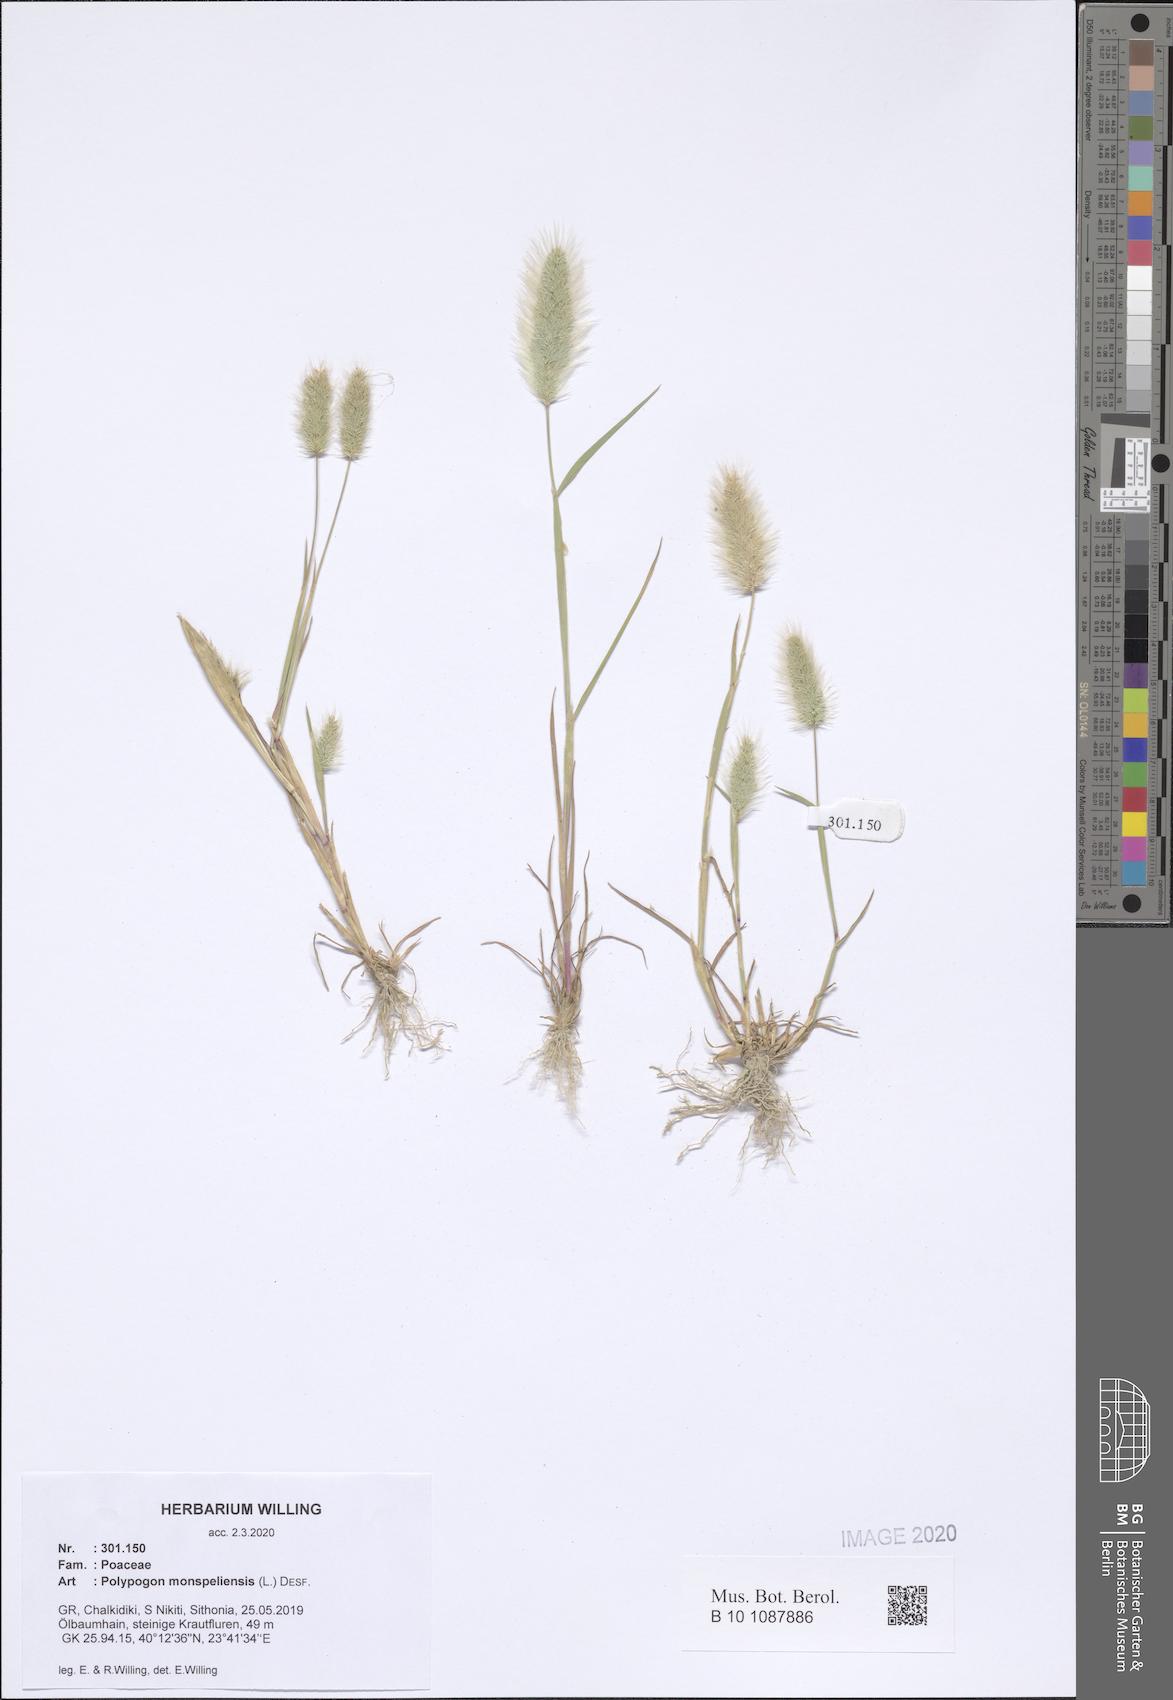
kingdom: Plantae
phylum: Tracheophyta
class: Liliopsida
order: Poales
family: Poaceae
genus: Polypogon
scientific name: Polypogon monspeliensis
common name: Annual rabbitsfoot grass
